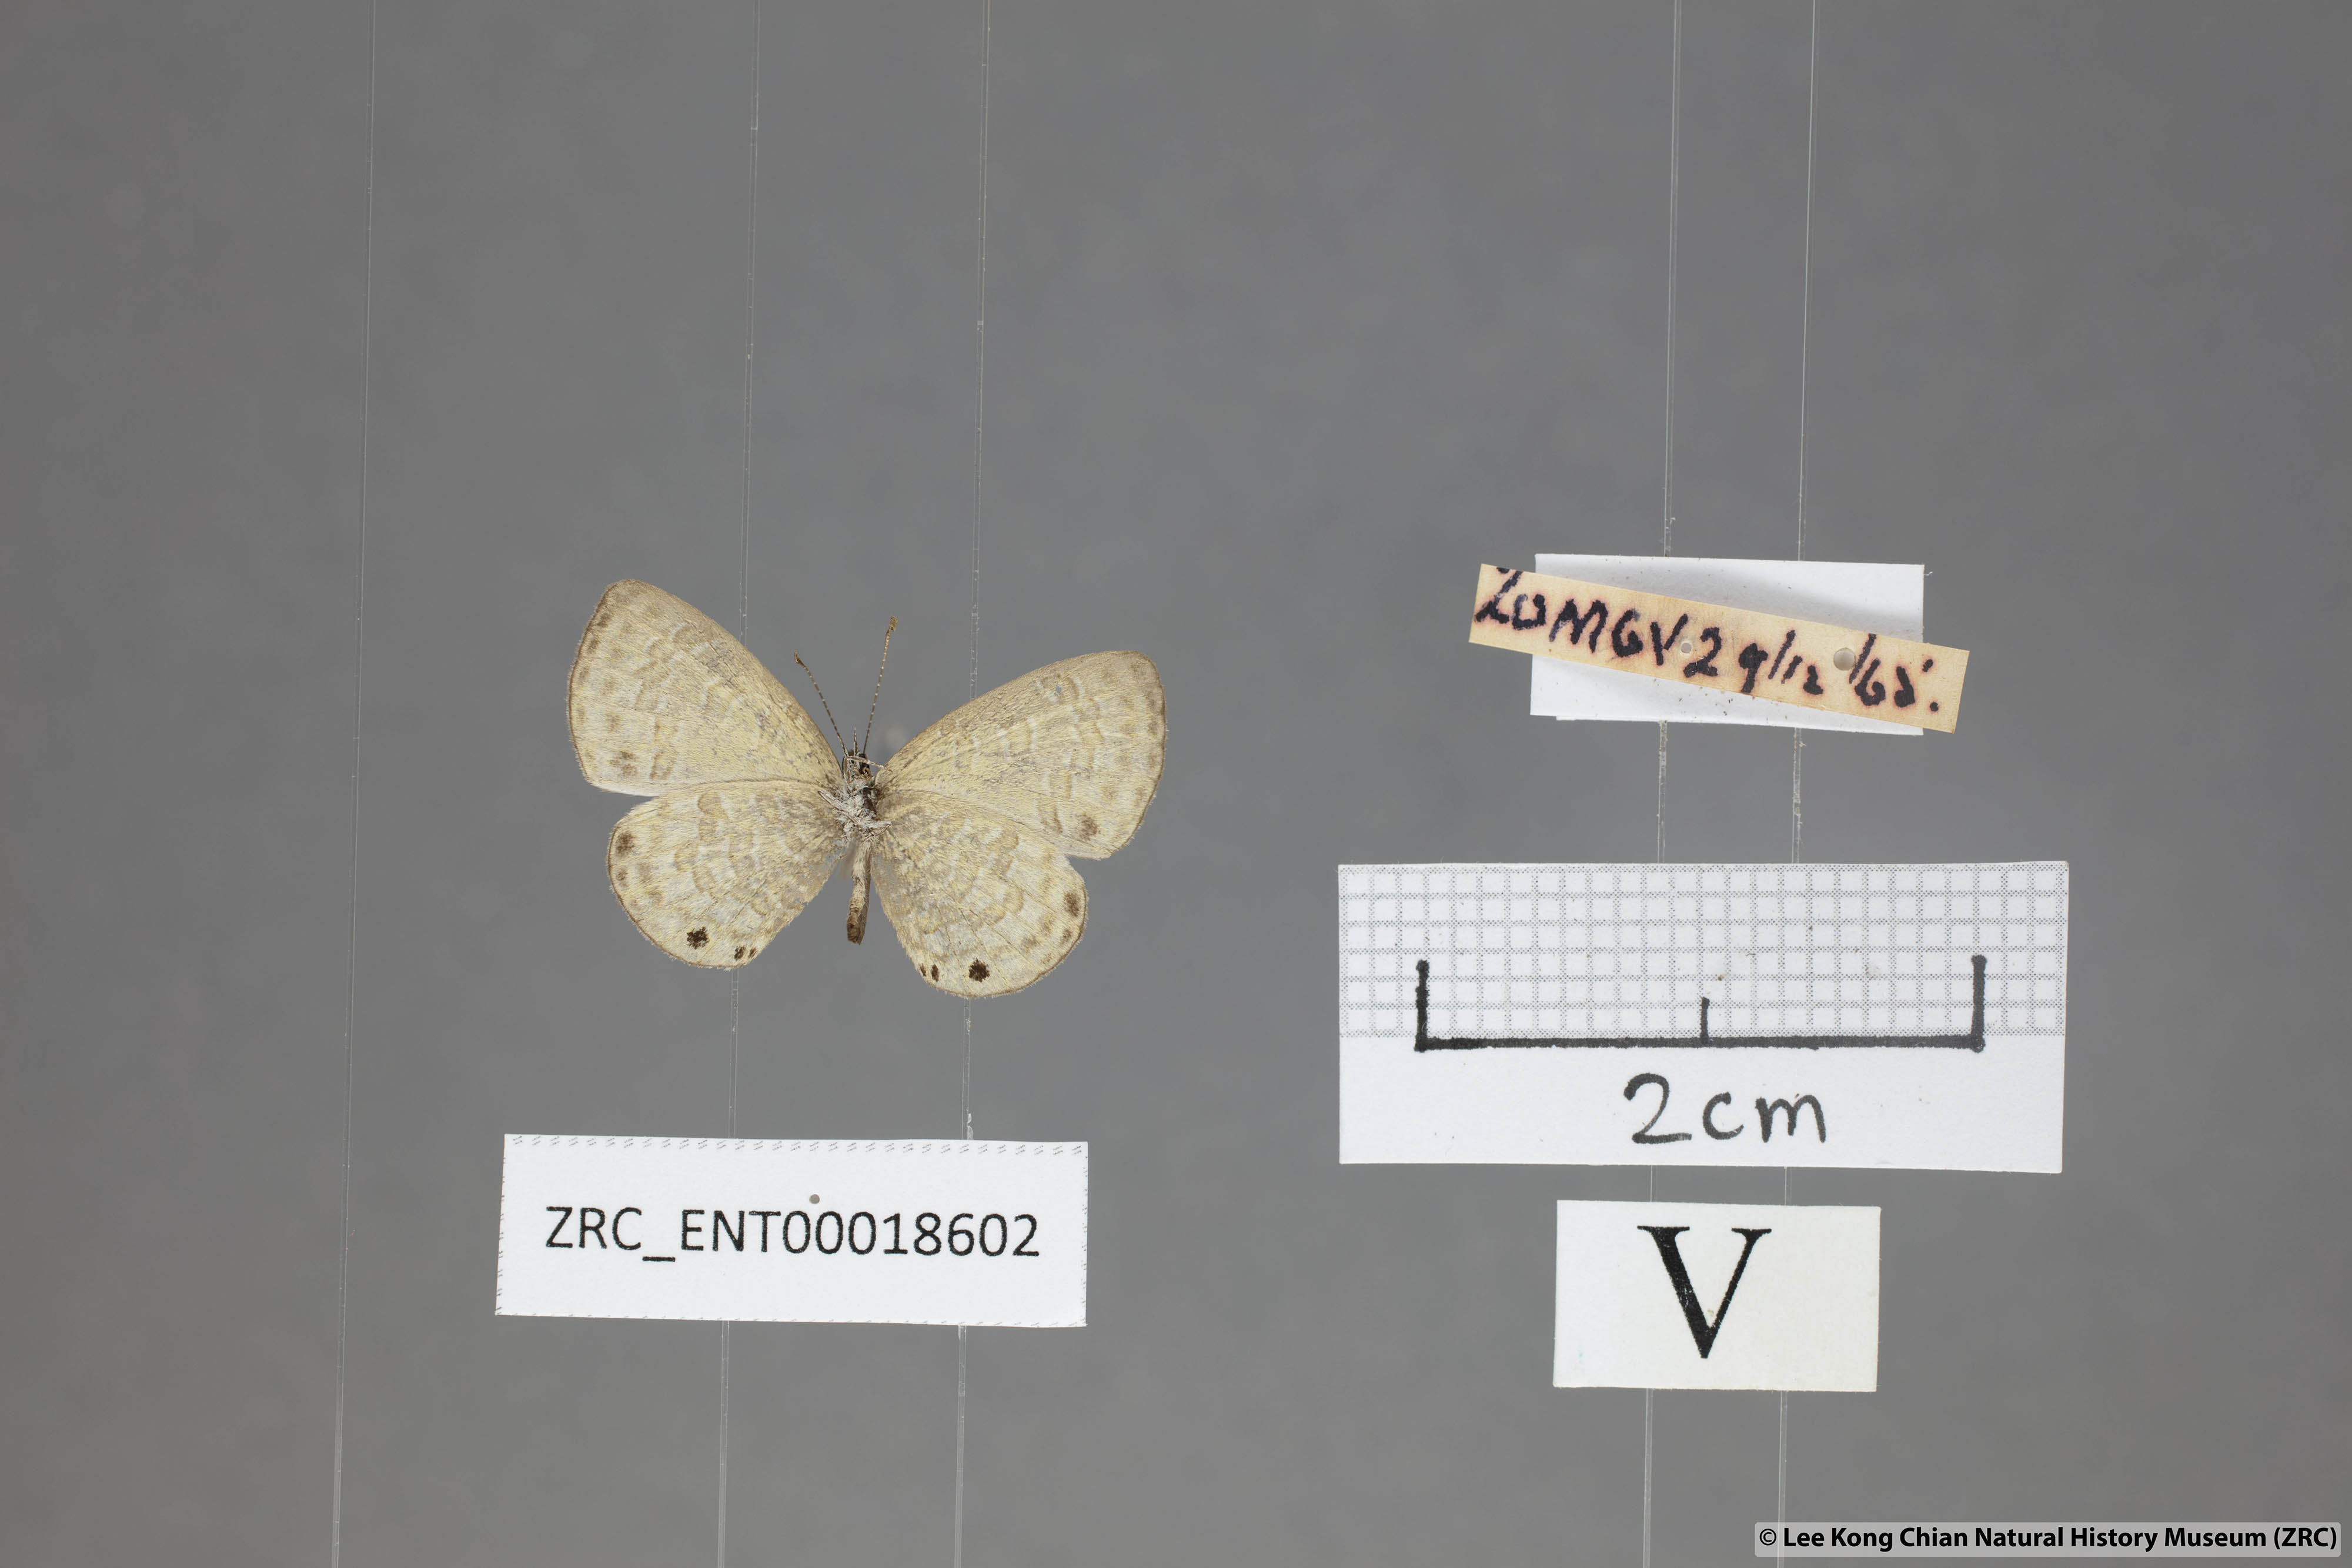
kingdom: Animalia
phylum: Arthropoda
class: Insecta
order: Lepidoptera
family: Lycaenidae
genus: Prosotas
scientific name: Prosotas lutea
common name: Brown lineblue
